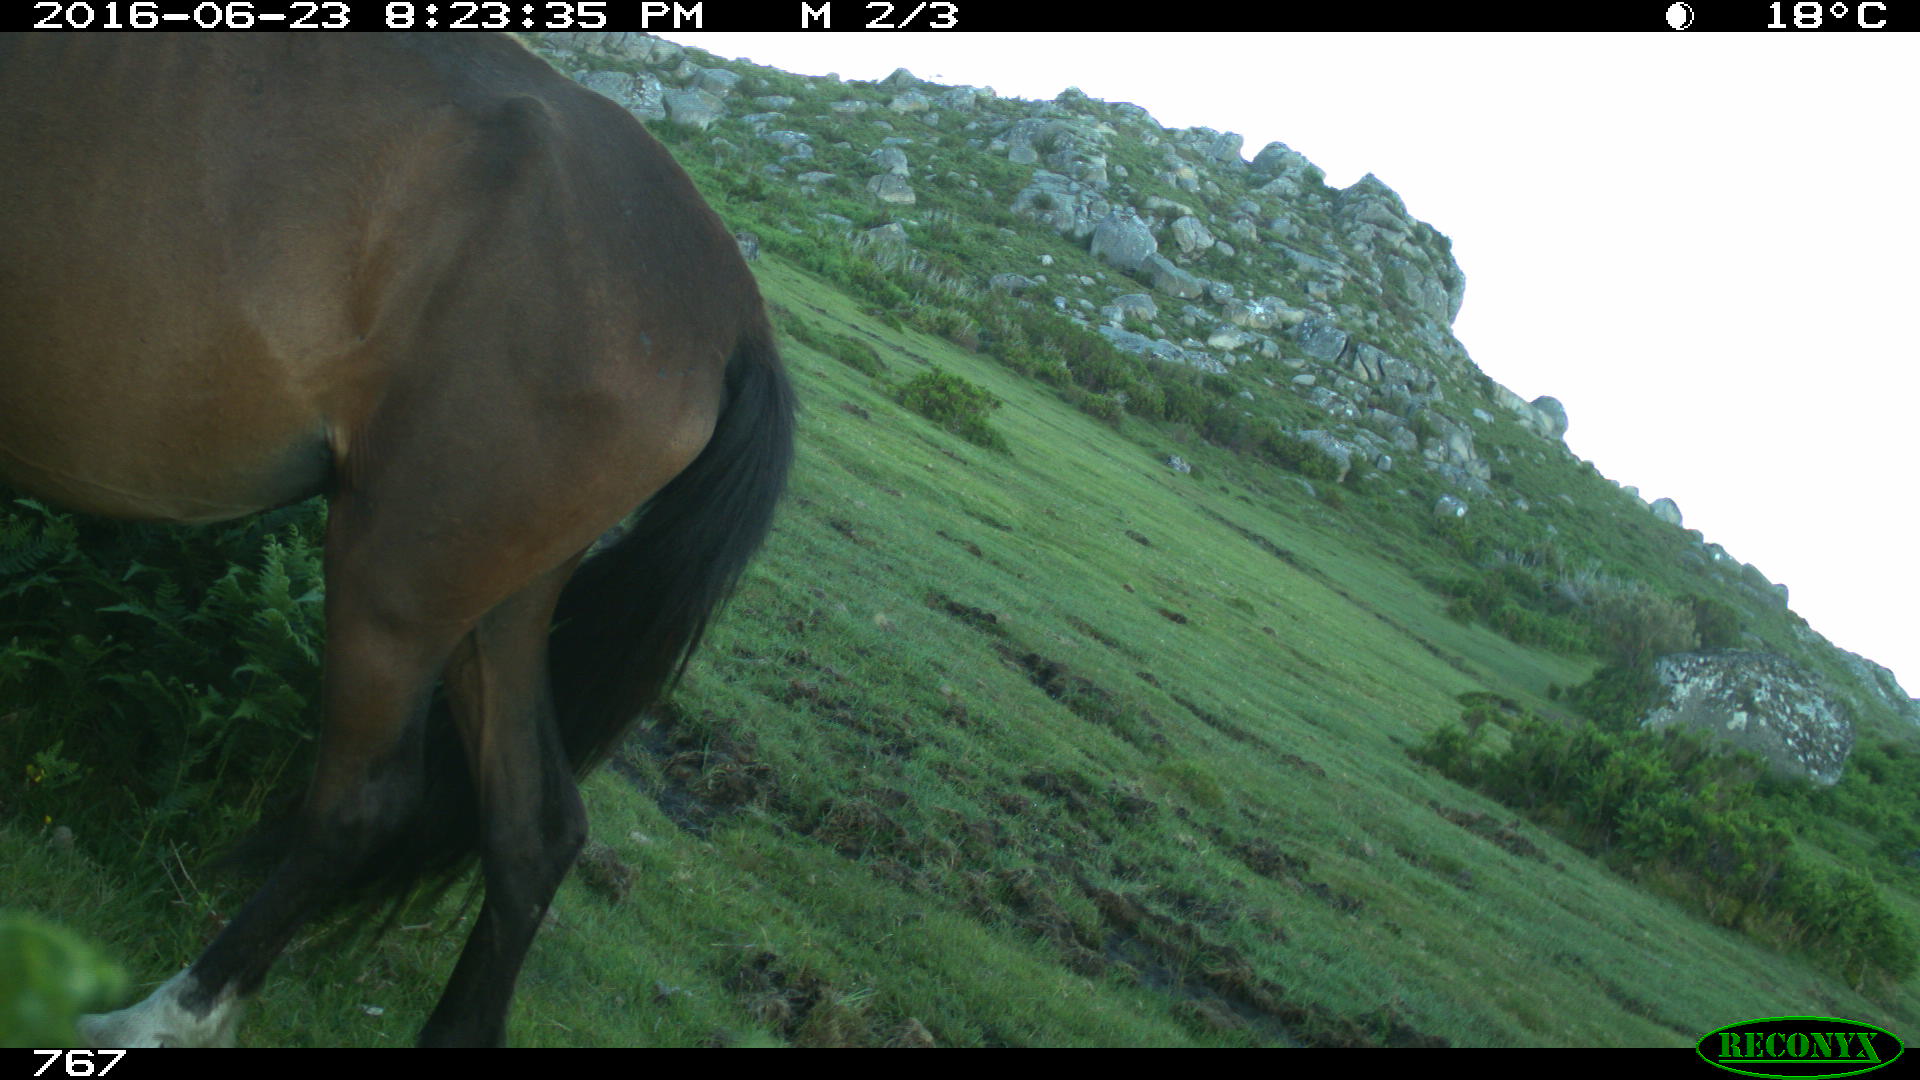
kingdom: Animalia
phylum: Chordata
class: Mammalia
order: Perissodactyla
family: Equidae
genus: Equus
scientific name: Equus caballus
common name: Horse
